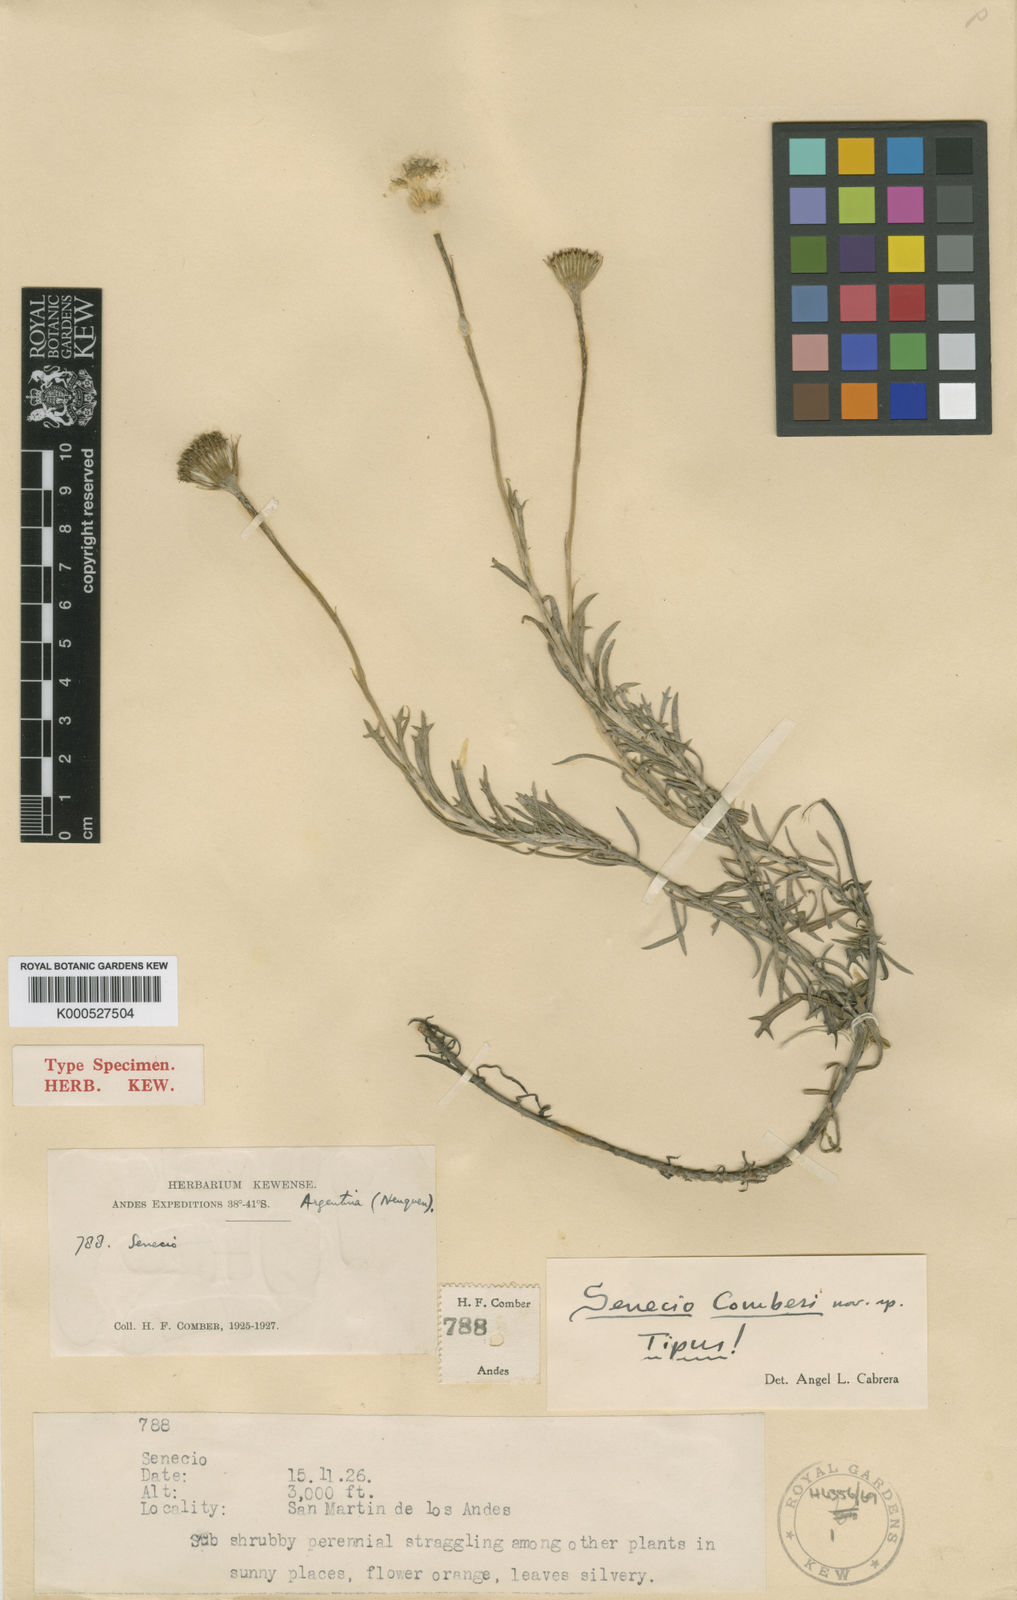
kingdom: Plantae
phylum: Tracheophyta
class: Magnoliopsida
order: Asterales
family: Asteraceae
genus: Senecio
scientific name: Senecio comberi
